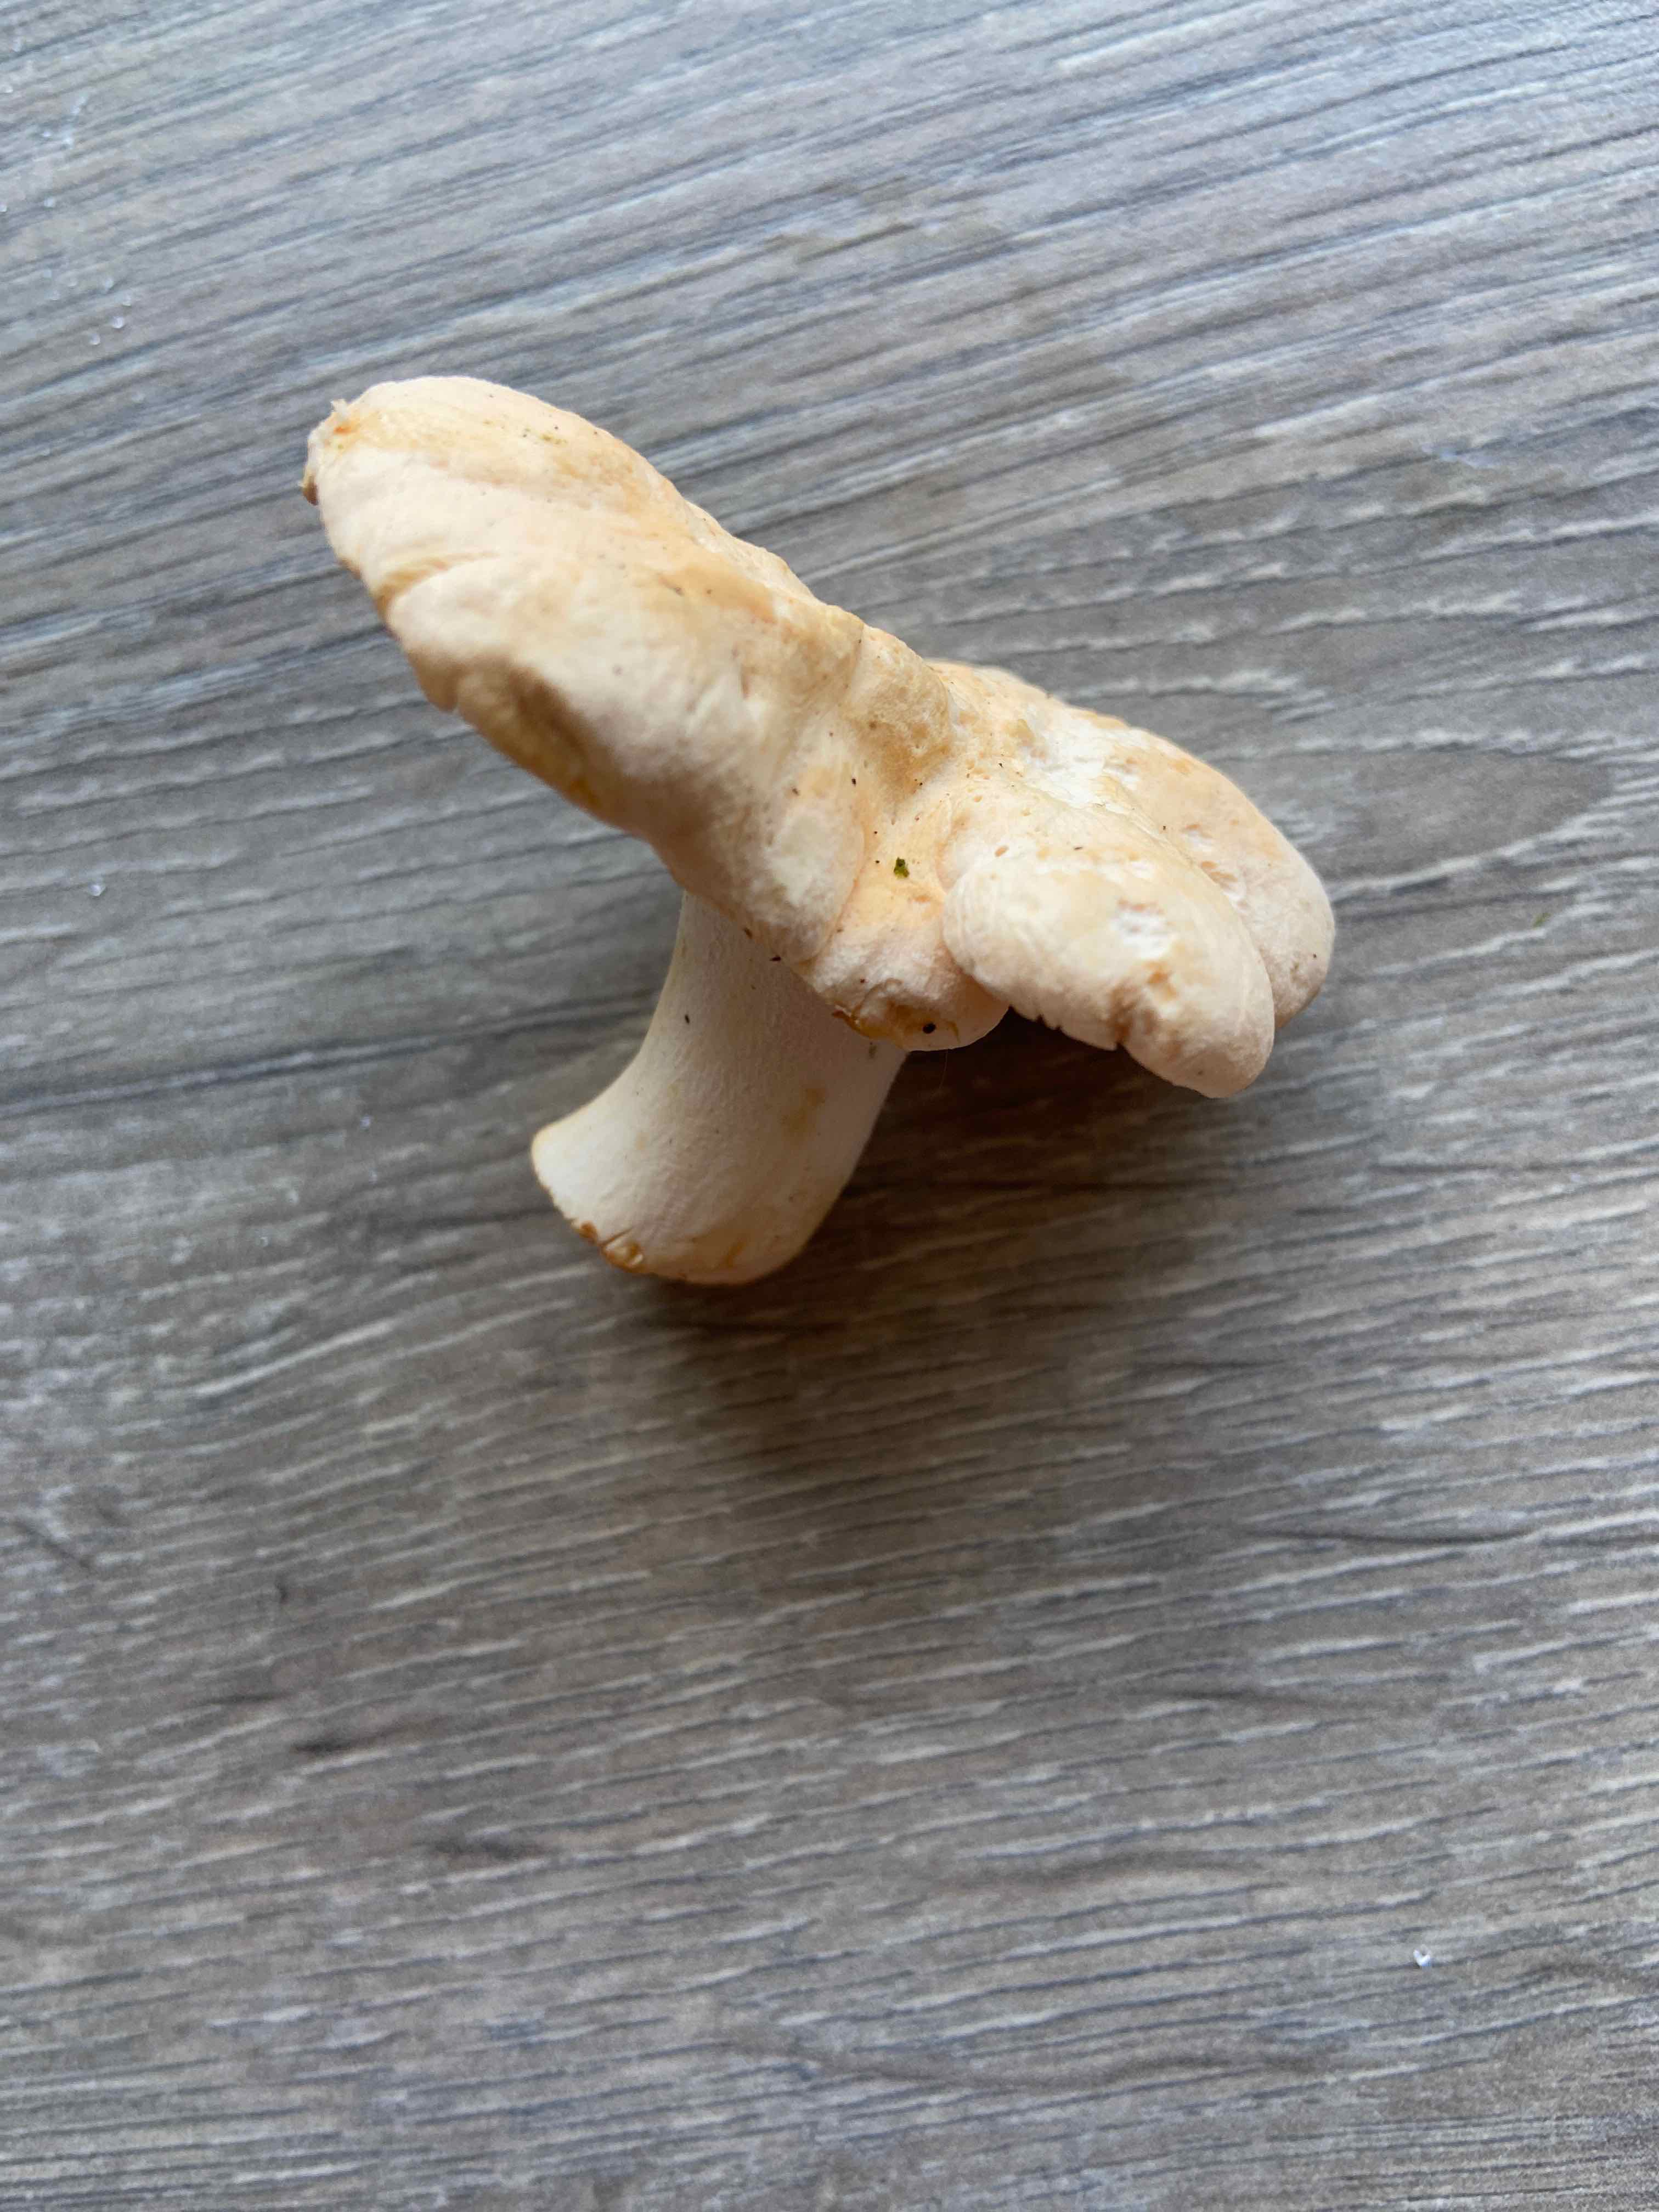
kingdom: Fungi
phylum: Basidiomycota
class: Agaricomycetes
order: Cantharellales
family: Hydnaceae
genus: Hydnum
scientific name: Hydnum
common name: pigsvamp
